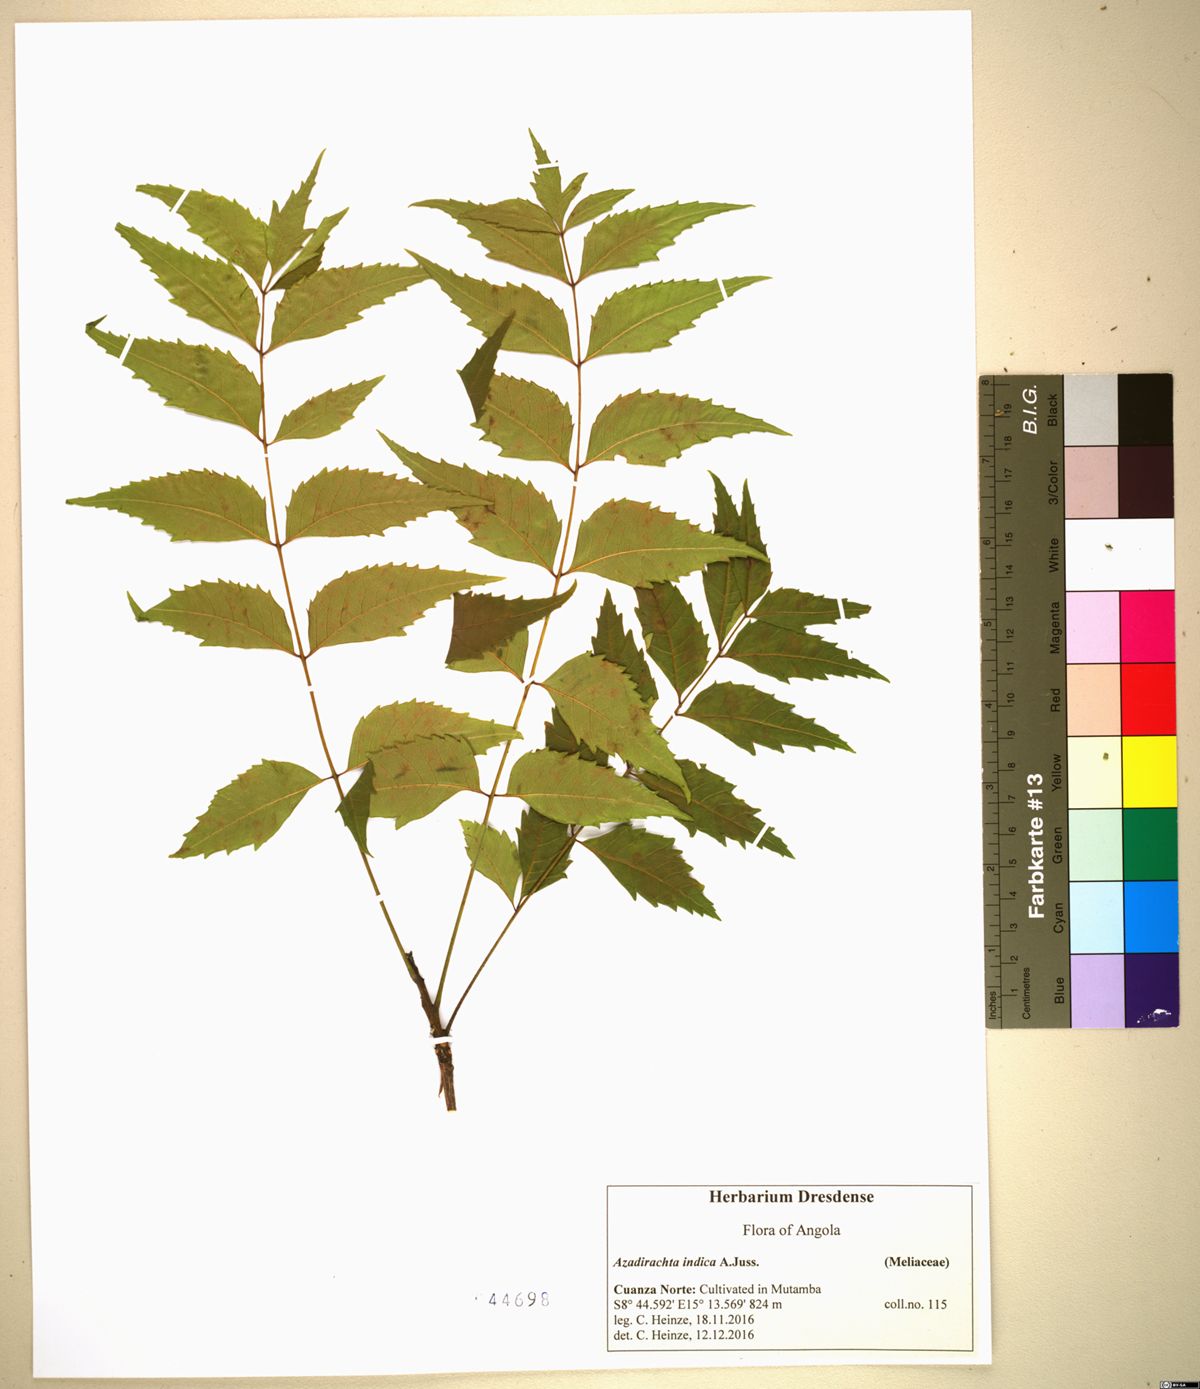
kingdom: Plantae
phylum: Tracheophyta
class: Magnoliopsida
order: Sapindales
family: Meliaceae
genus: Azadirachta
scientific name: Azadirachta indica
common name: Neem
